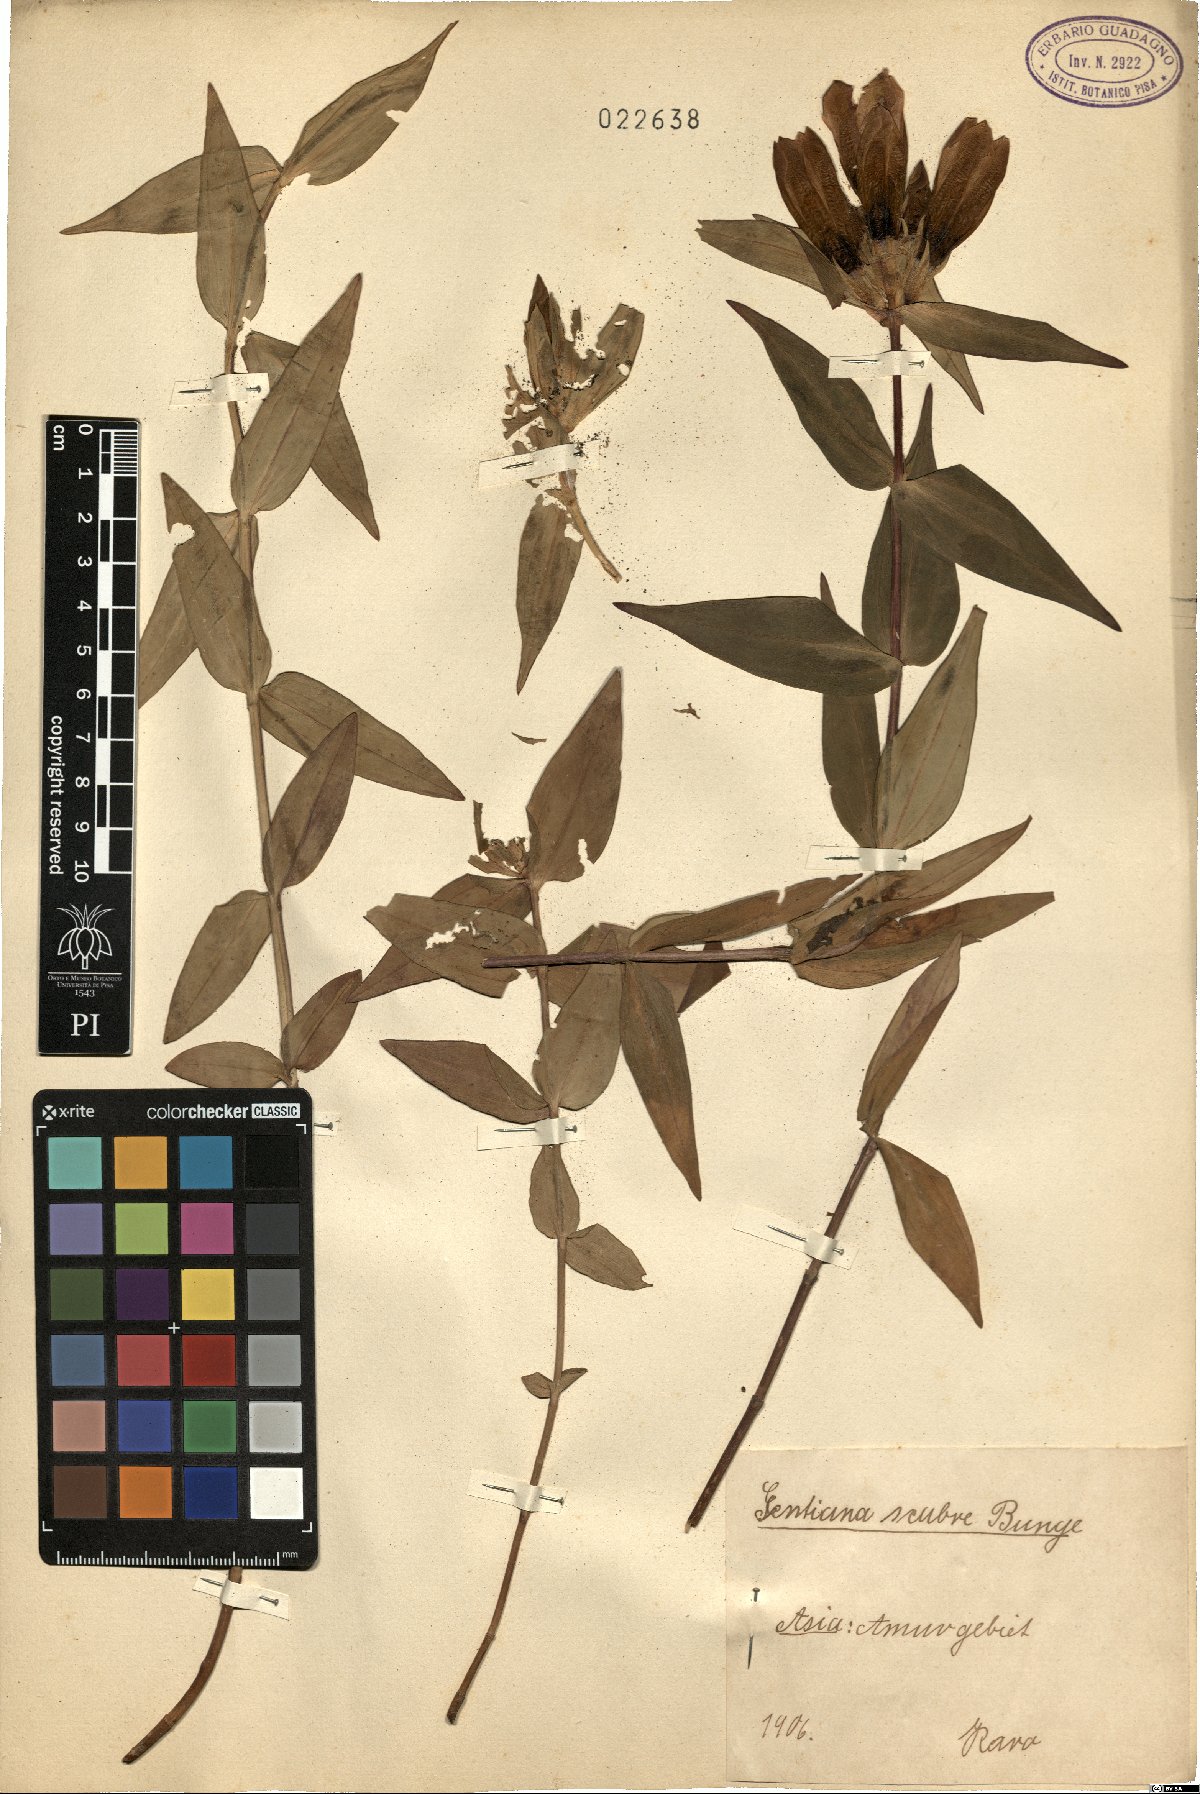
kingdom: Plantae
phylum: Tracheophyta
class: Magnoliopsida
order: Gentianales
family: Gentianaceae
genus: Gentiana
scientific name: Gentiana scabra
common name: Scabrous gentian
